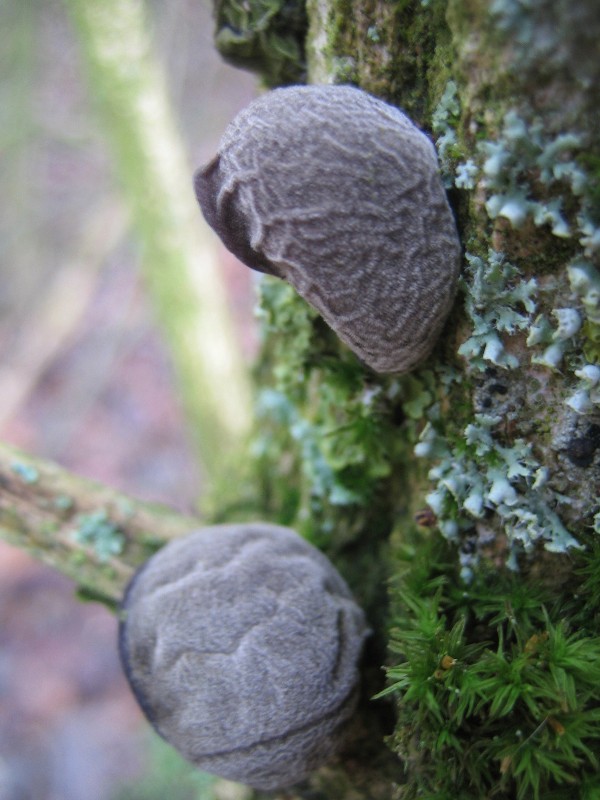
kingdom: Fungi
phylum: Basidiomycota
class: Agaricomycetes
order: Auriculariales
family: Auriculariaceae
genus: Auricularia
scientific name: Auricularia auricula-judae
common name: almindelig judasøre
